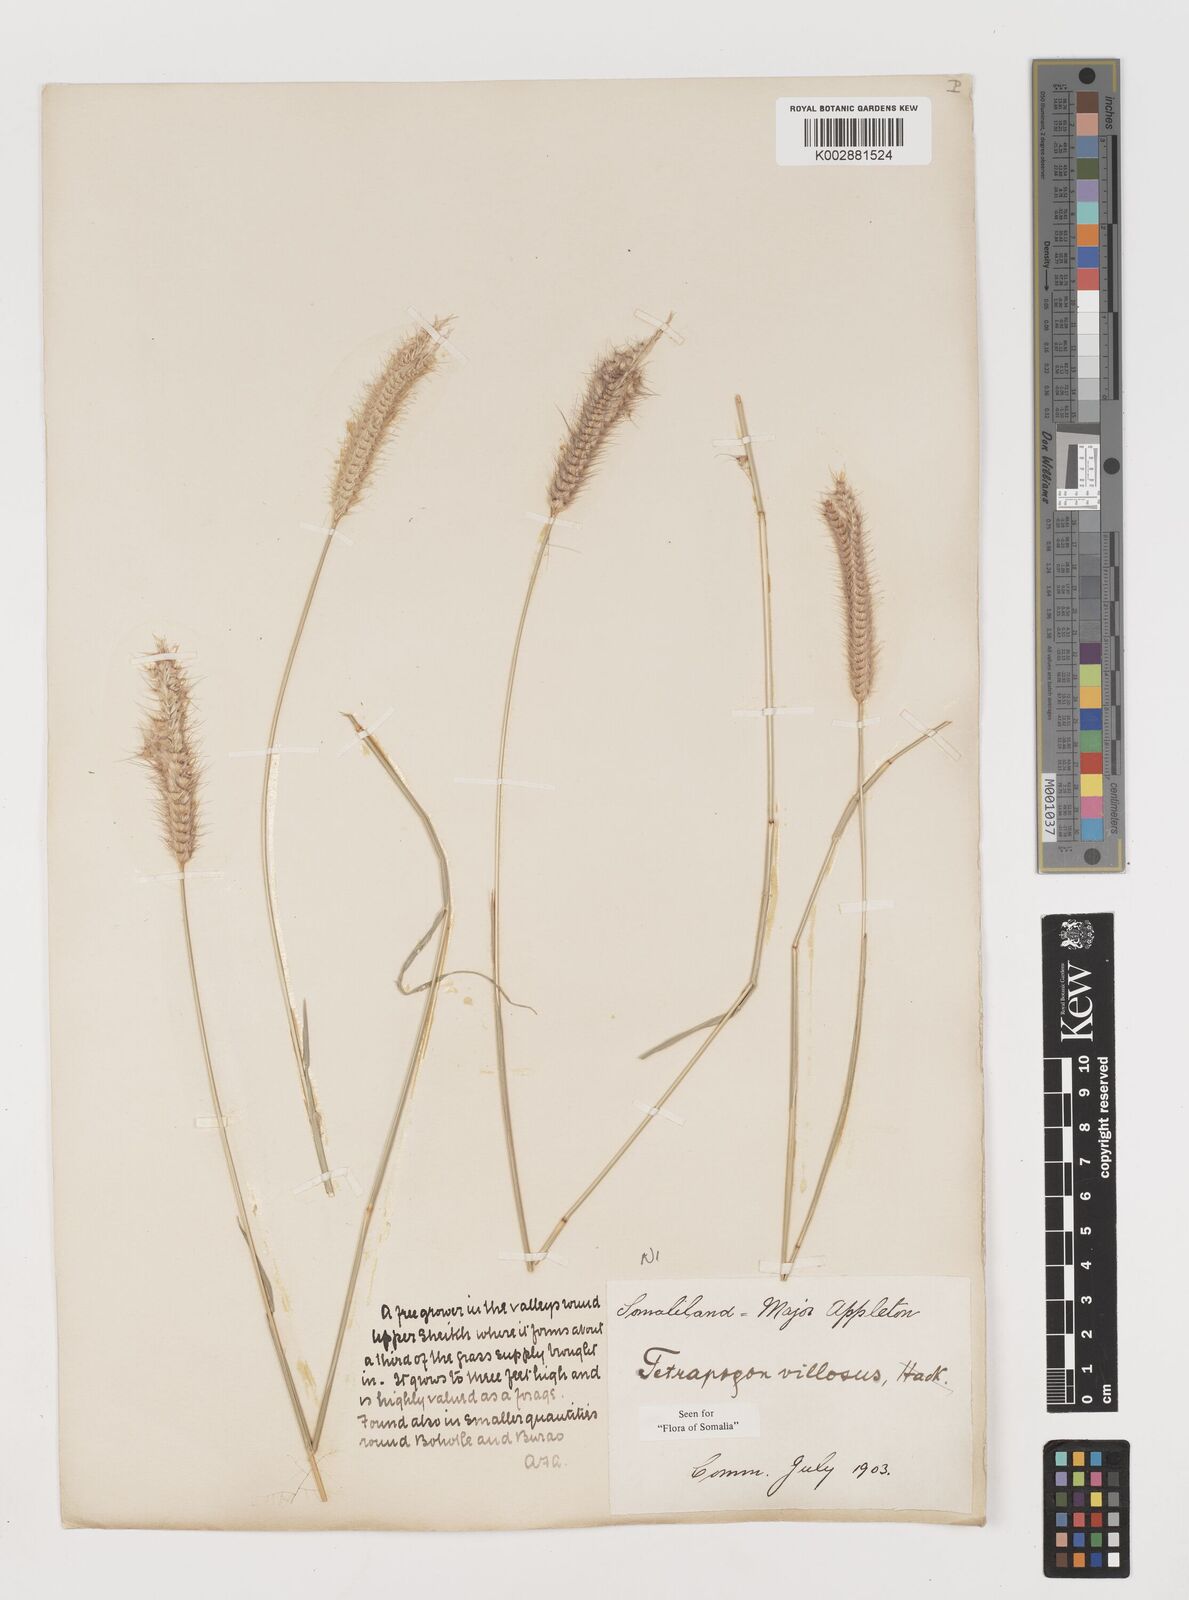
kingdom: Plantae
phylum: Tracheophyta
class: Liliopsida
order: Poales
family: Poaceae
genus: Tetrapogon
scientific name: Tetrapogon villosus
